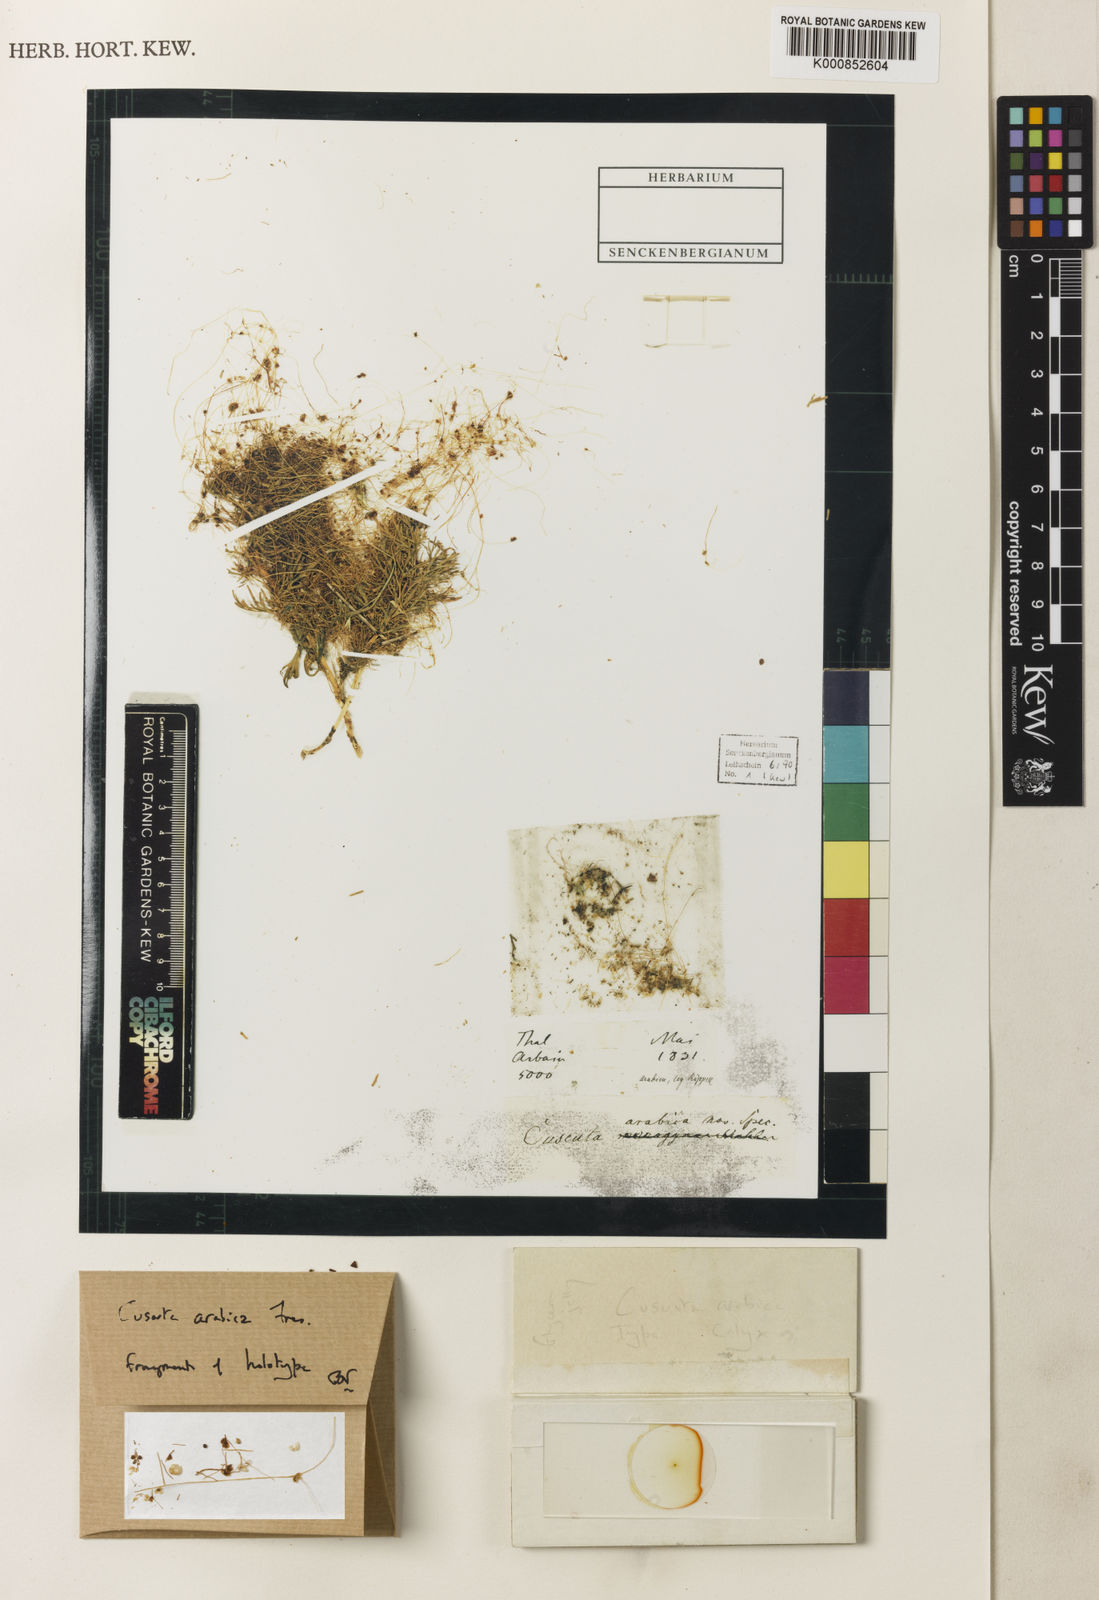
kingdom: Plantae
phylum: Tracheophyta
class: Magnoliopsida
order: Solanales
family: Convolvulaceae
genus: Cuscuta
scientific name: Cuscuta pedicellata
